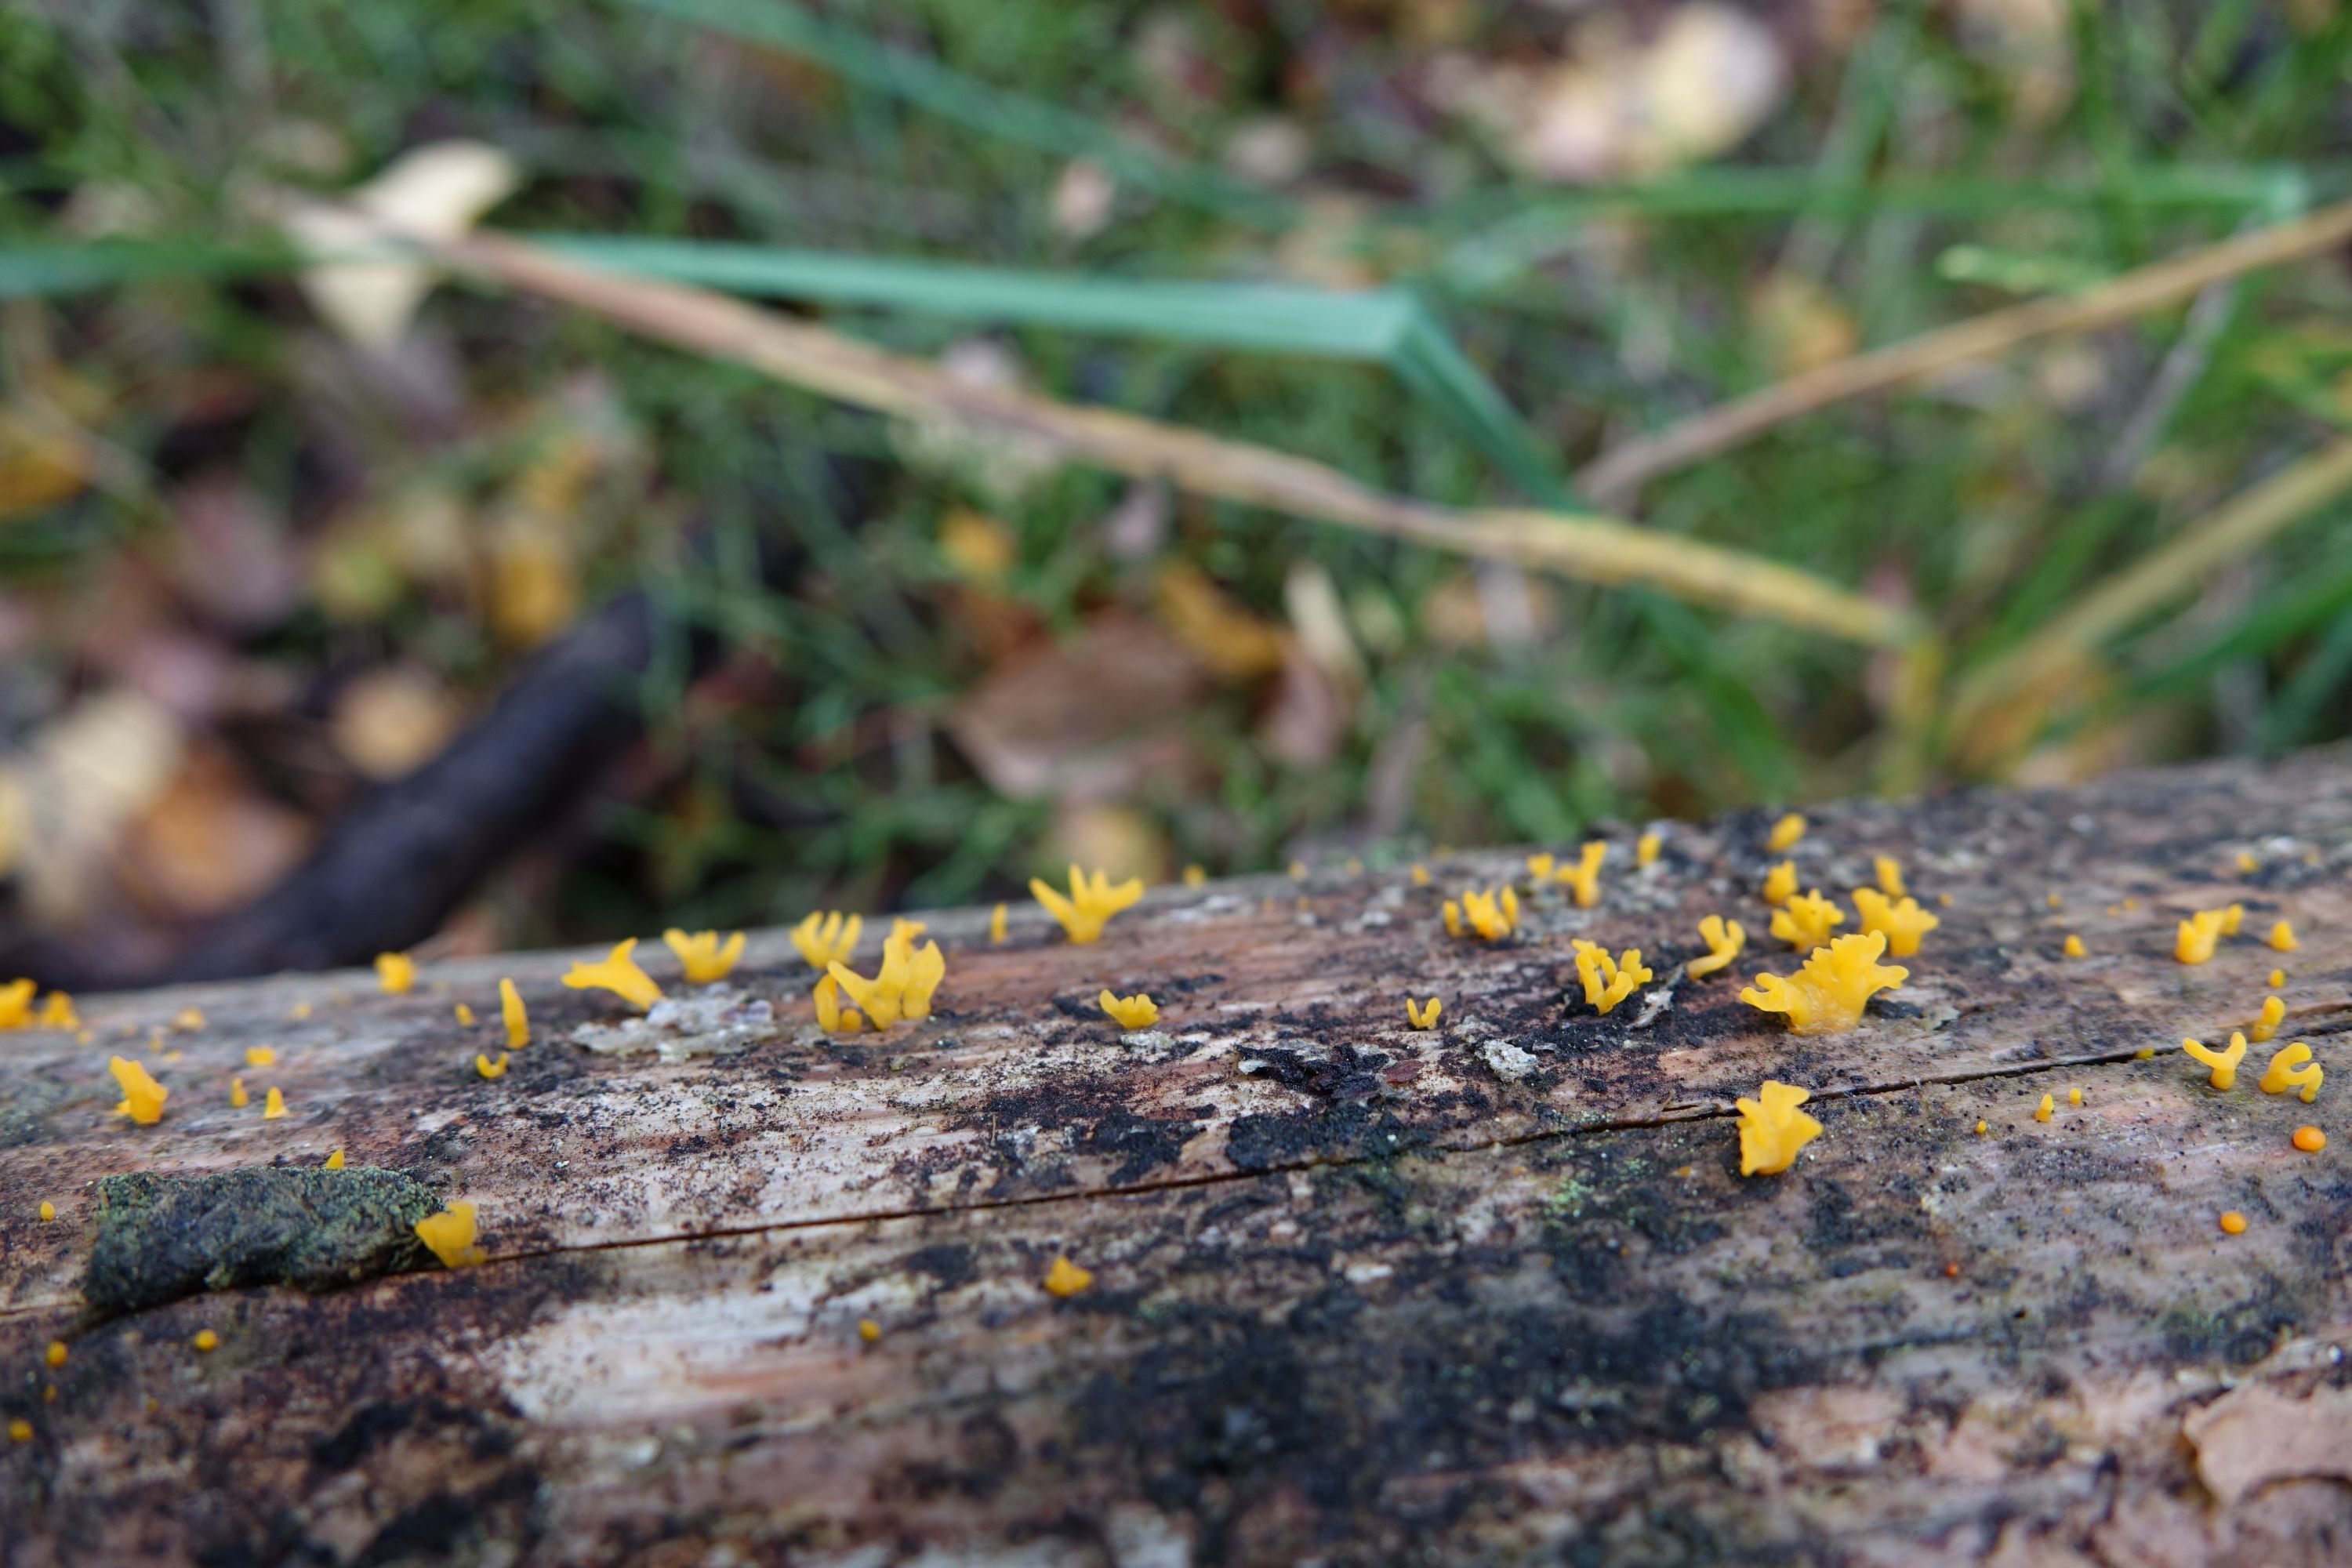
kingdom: Fungi
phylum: Basidiomycota
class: Dacrymycetes
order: Dacrymycetales
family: Dacrymycetaceae
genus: Calocera
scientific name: Calocera furcata
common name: Forked stagshorn
